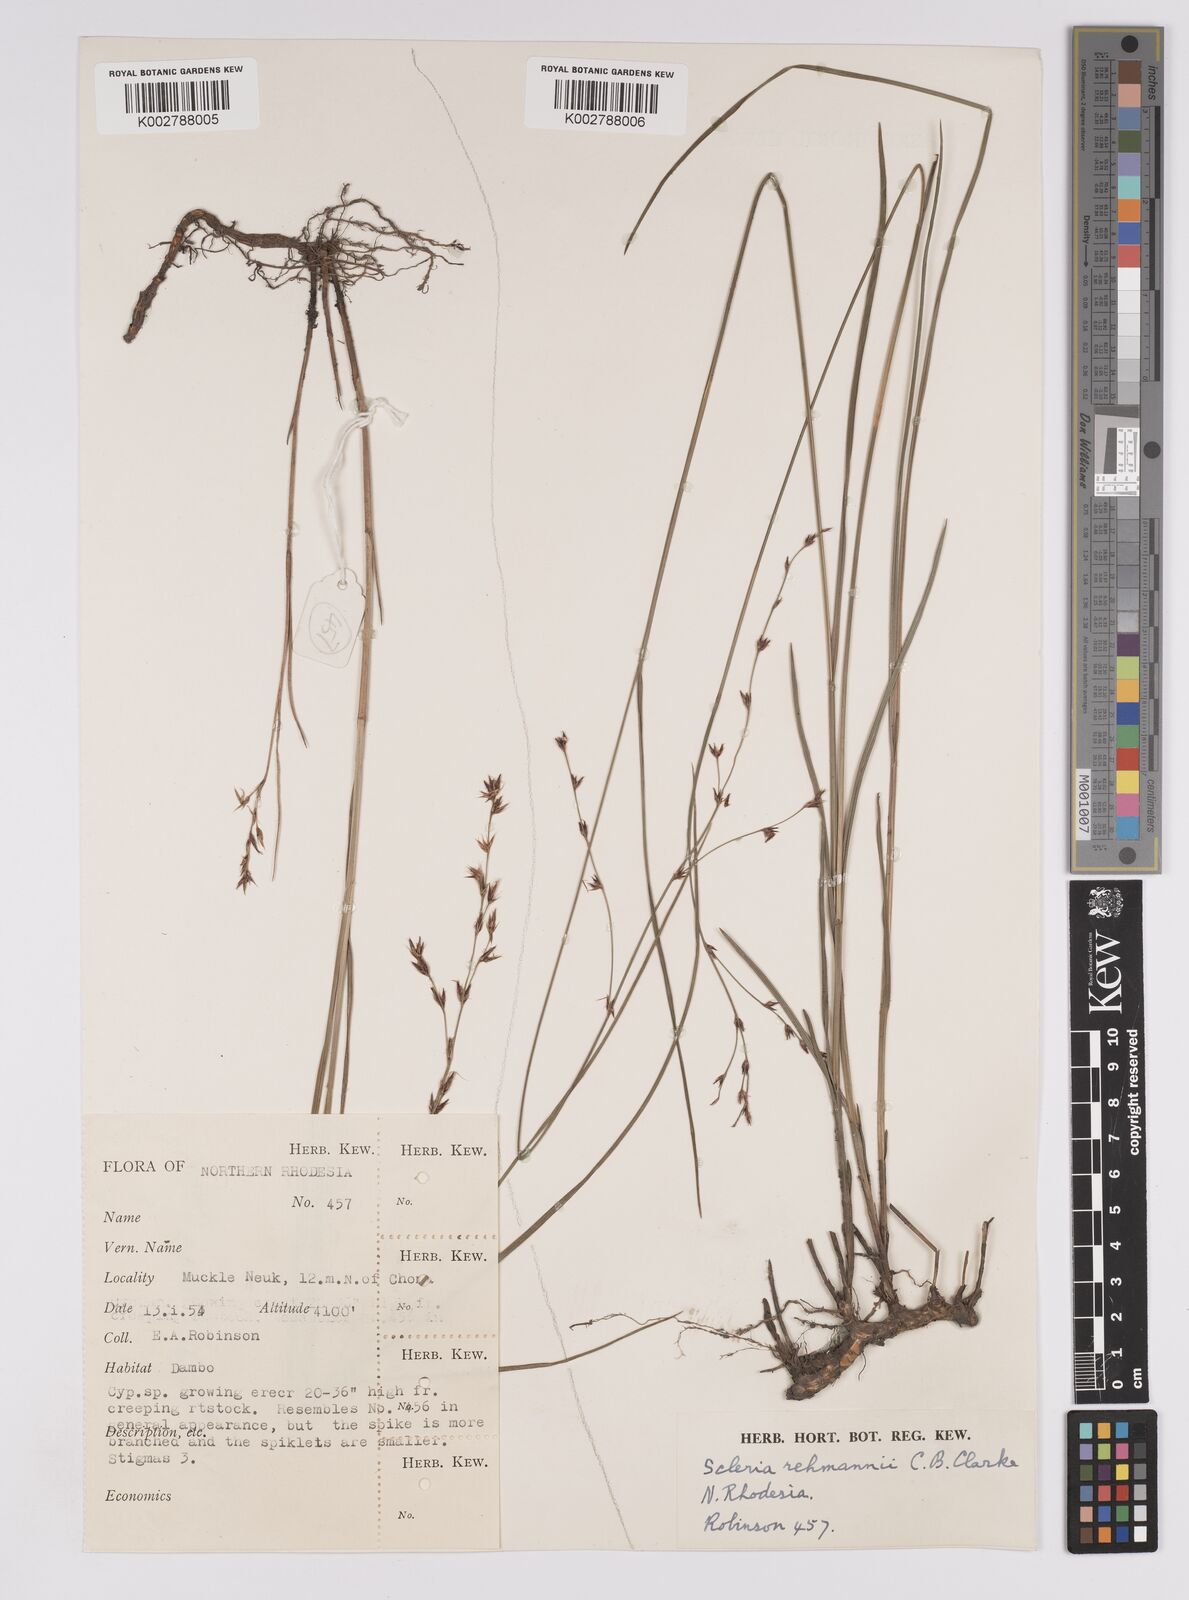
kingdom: Plantae
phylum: Tracheophyta
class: Liliopsida
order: Poales
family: Cyperaceae
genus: Scleria
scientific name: Scleria rehmannii
